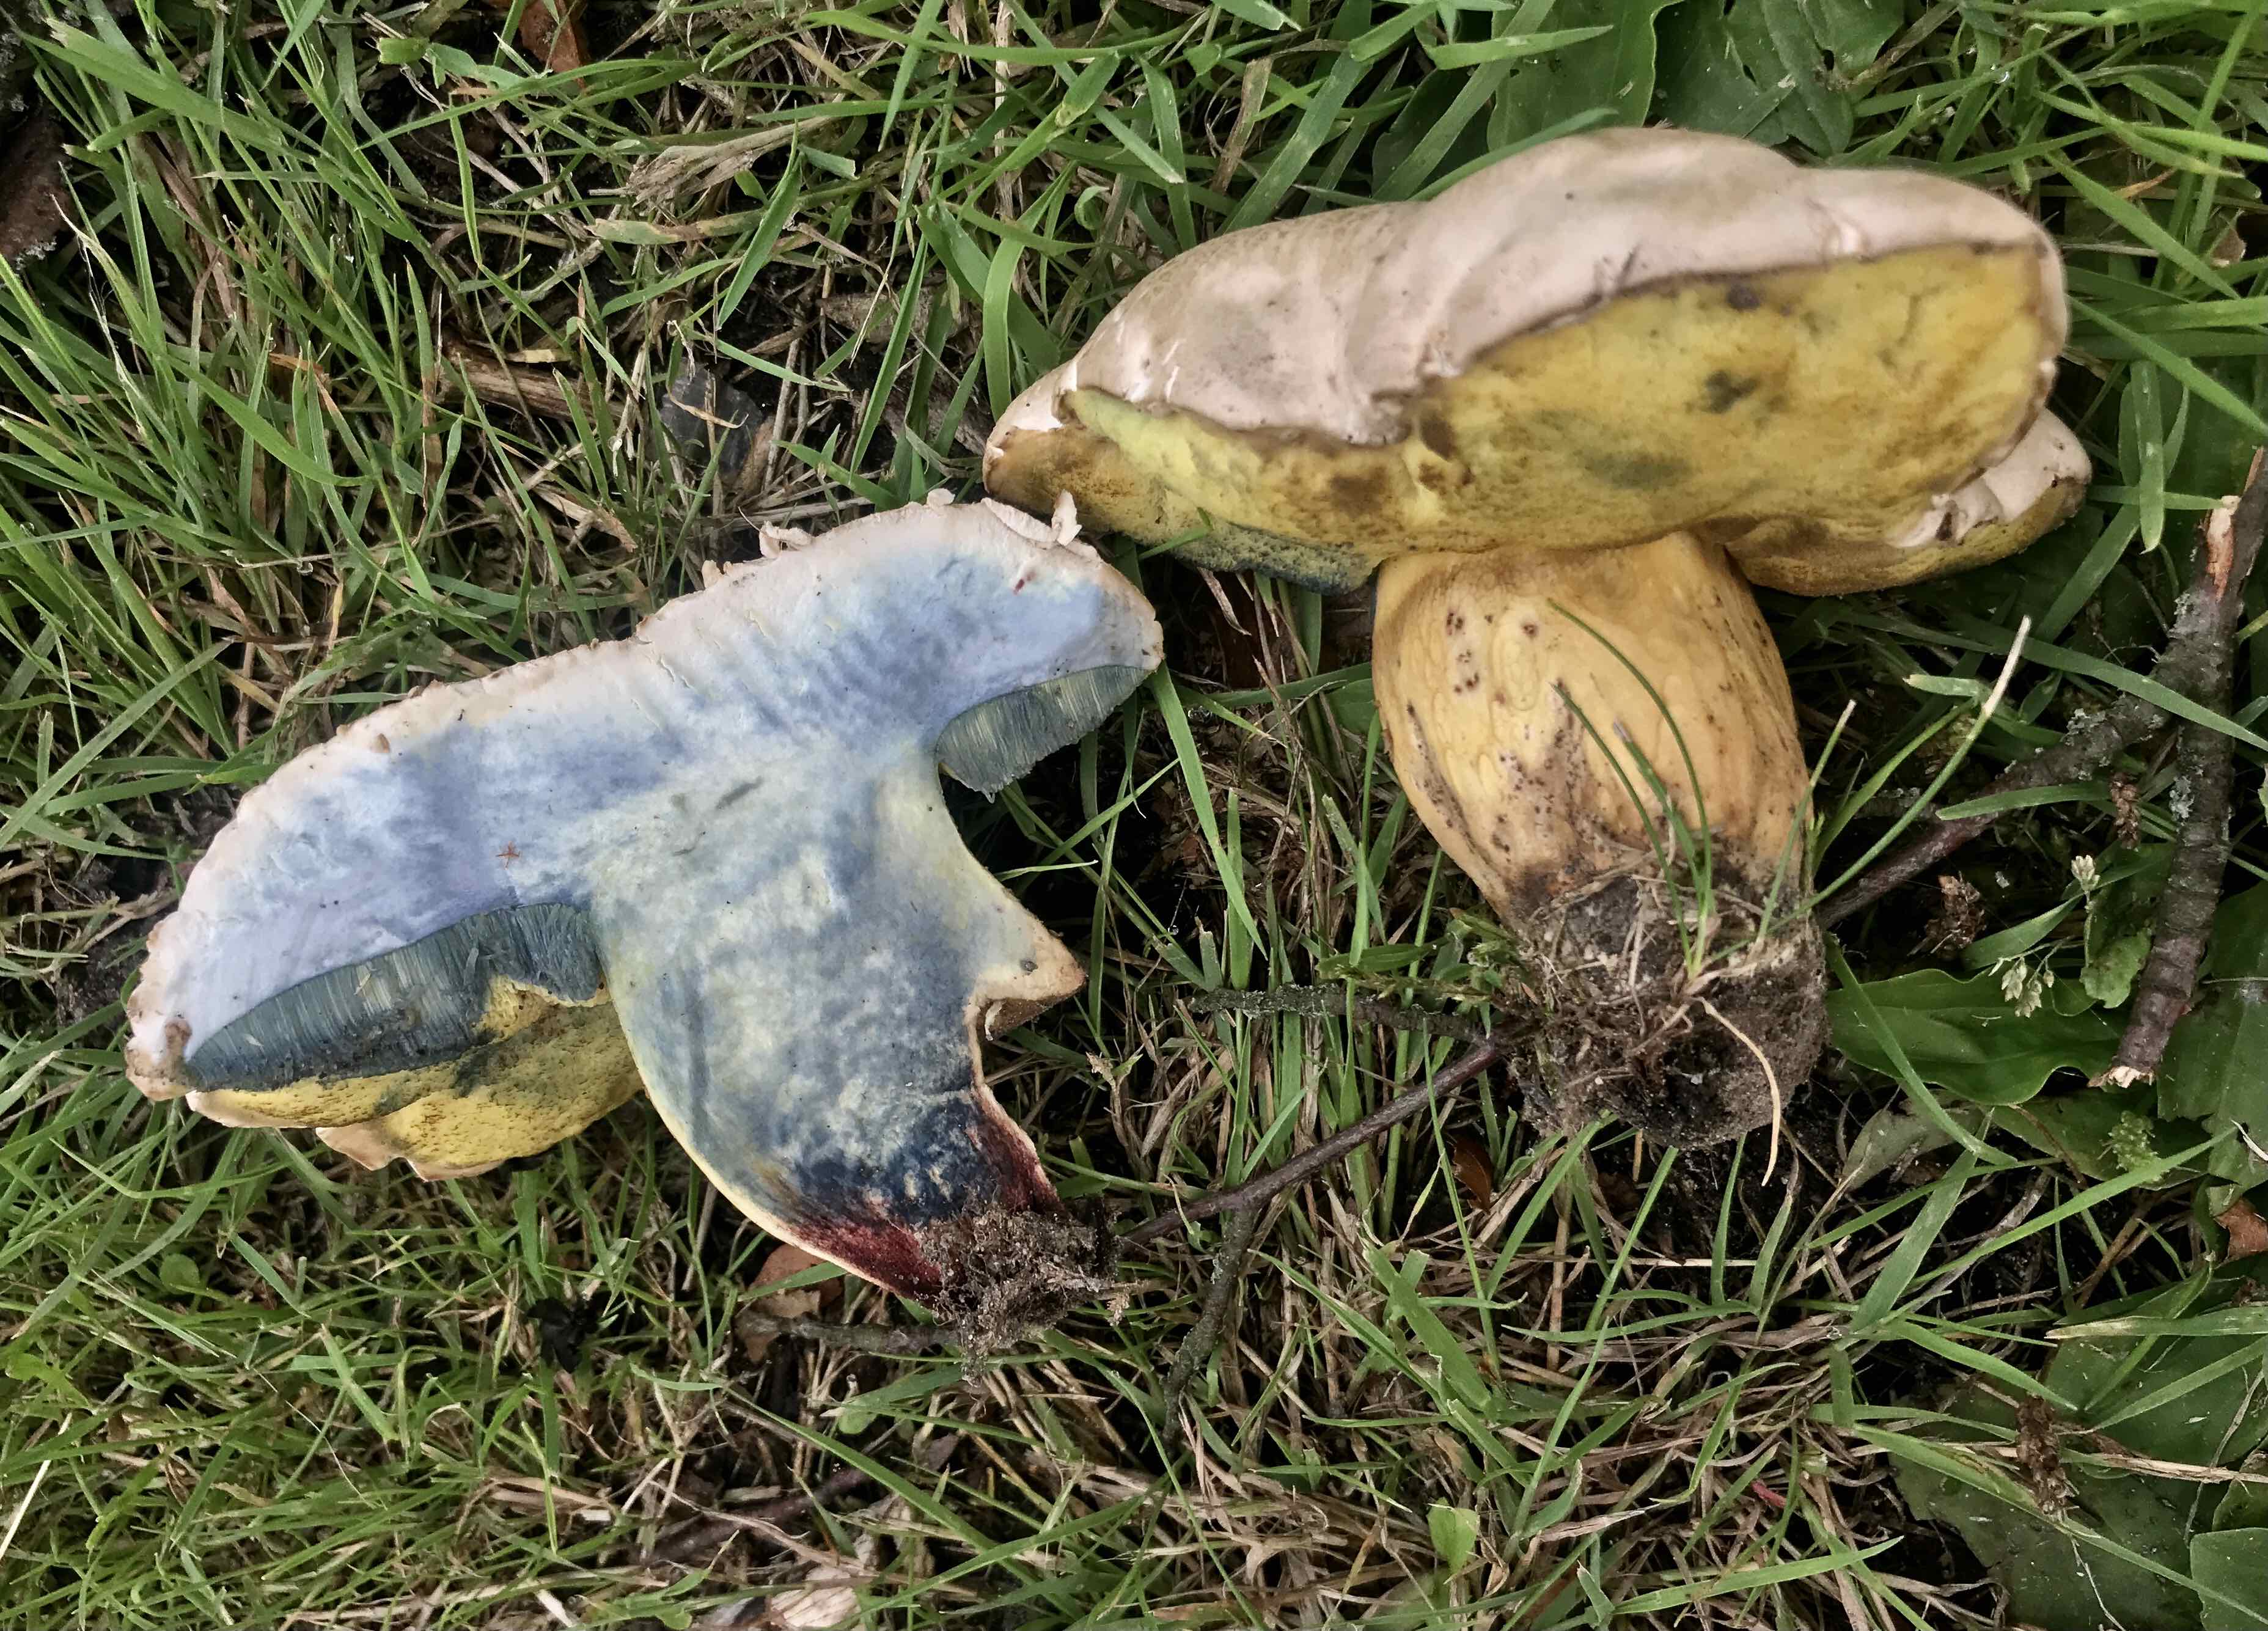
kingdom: Fungi
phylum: Basidiomycota
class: Agaricomycetes
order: Boletales
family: Boletaceae
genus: Caloboletus
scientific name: Caloboletus radicans
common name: rod-rørhat
